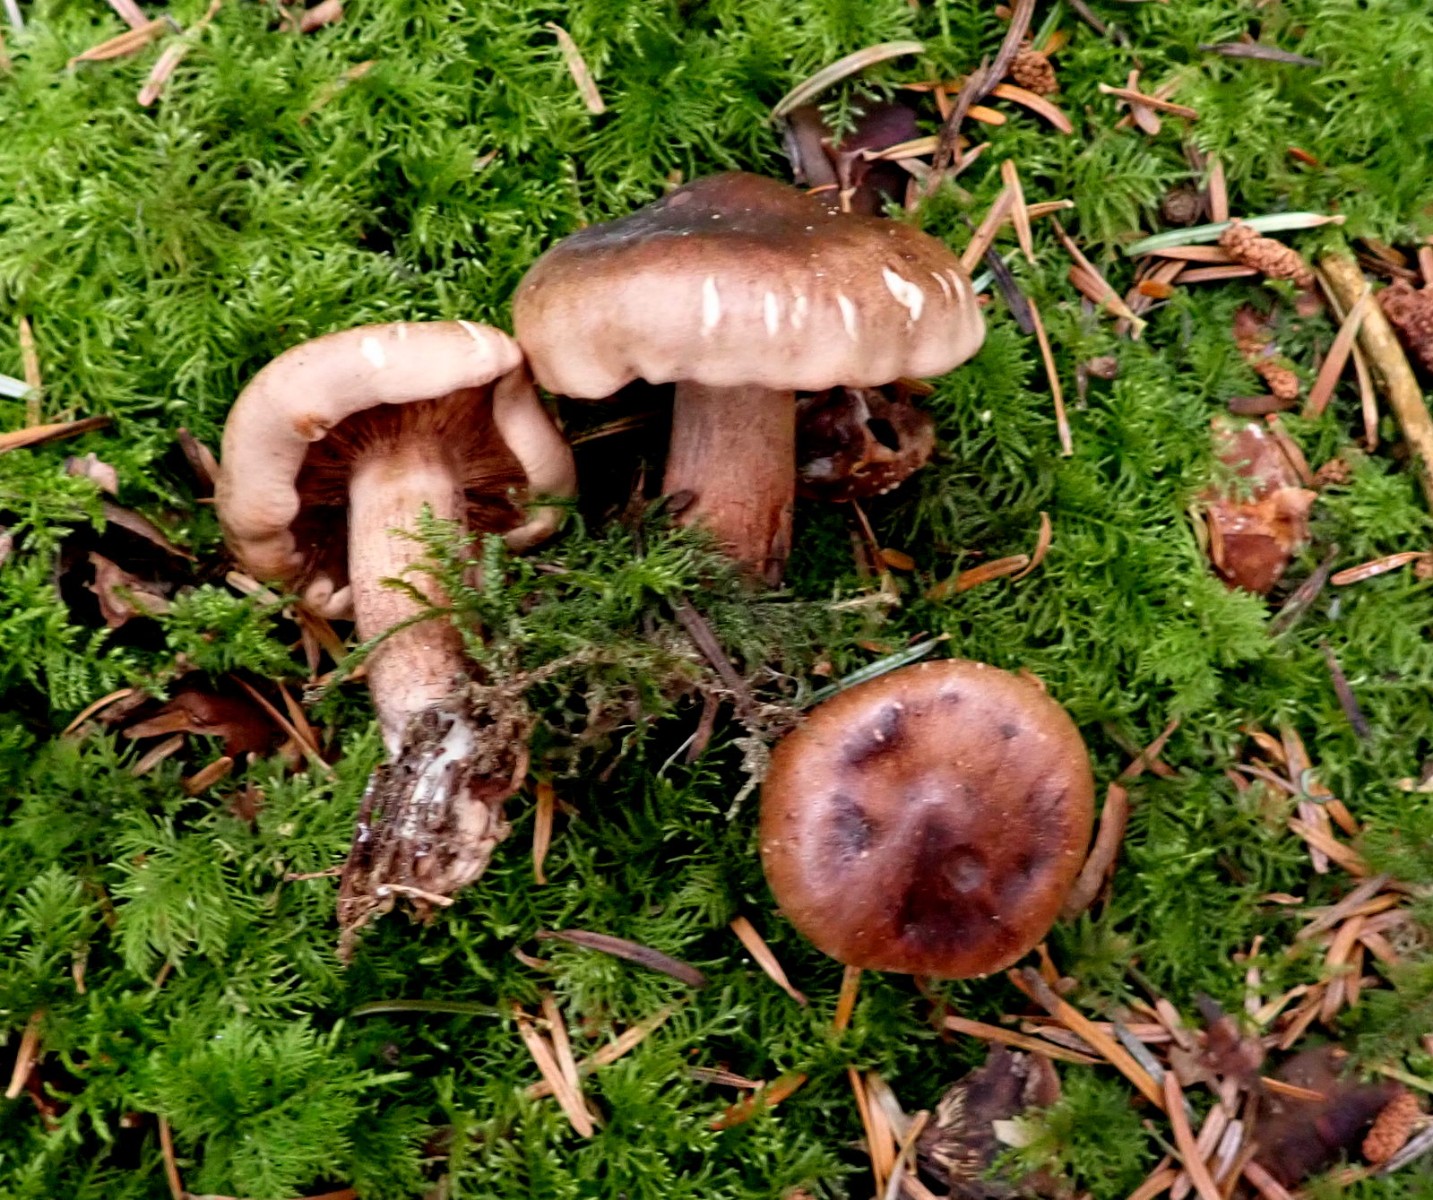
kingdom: Fungi
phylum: Basidiomycota
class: Agaricomycetes
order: Agaricales
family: Tricholomataceae
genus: Tricholoma
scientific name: Tricholoma ustale
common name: sveden ridderhat
